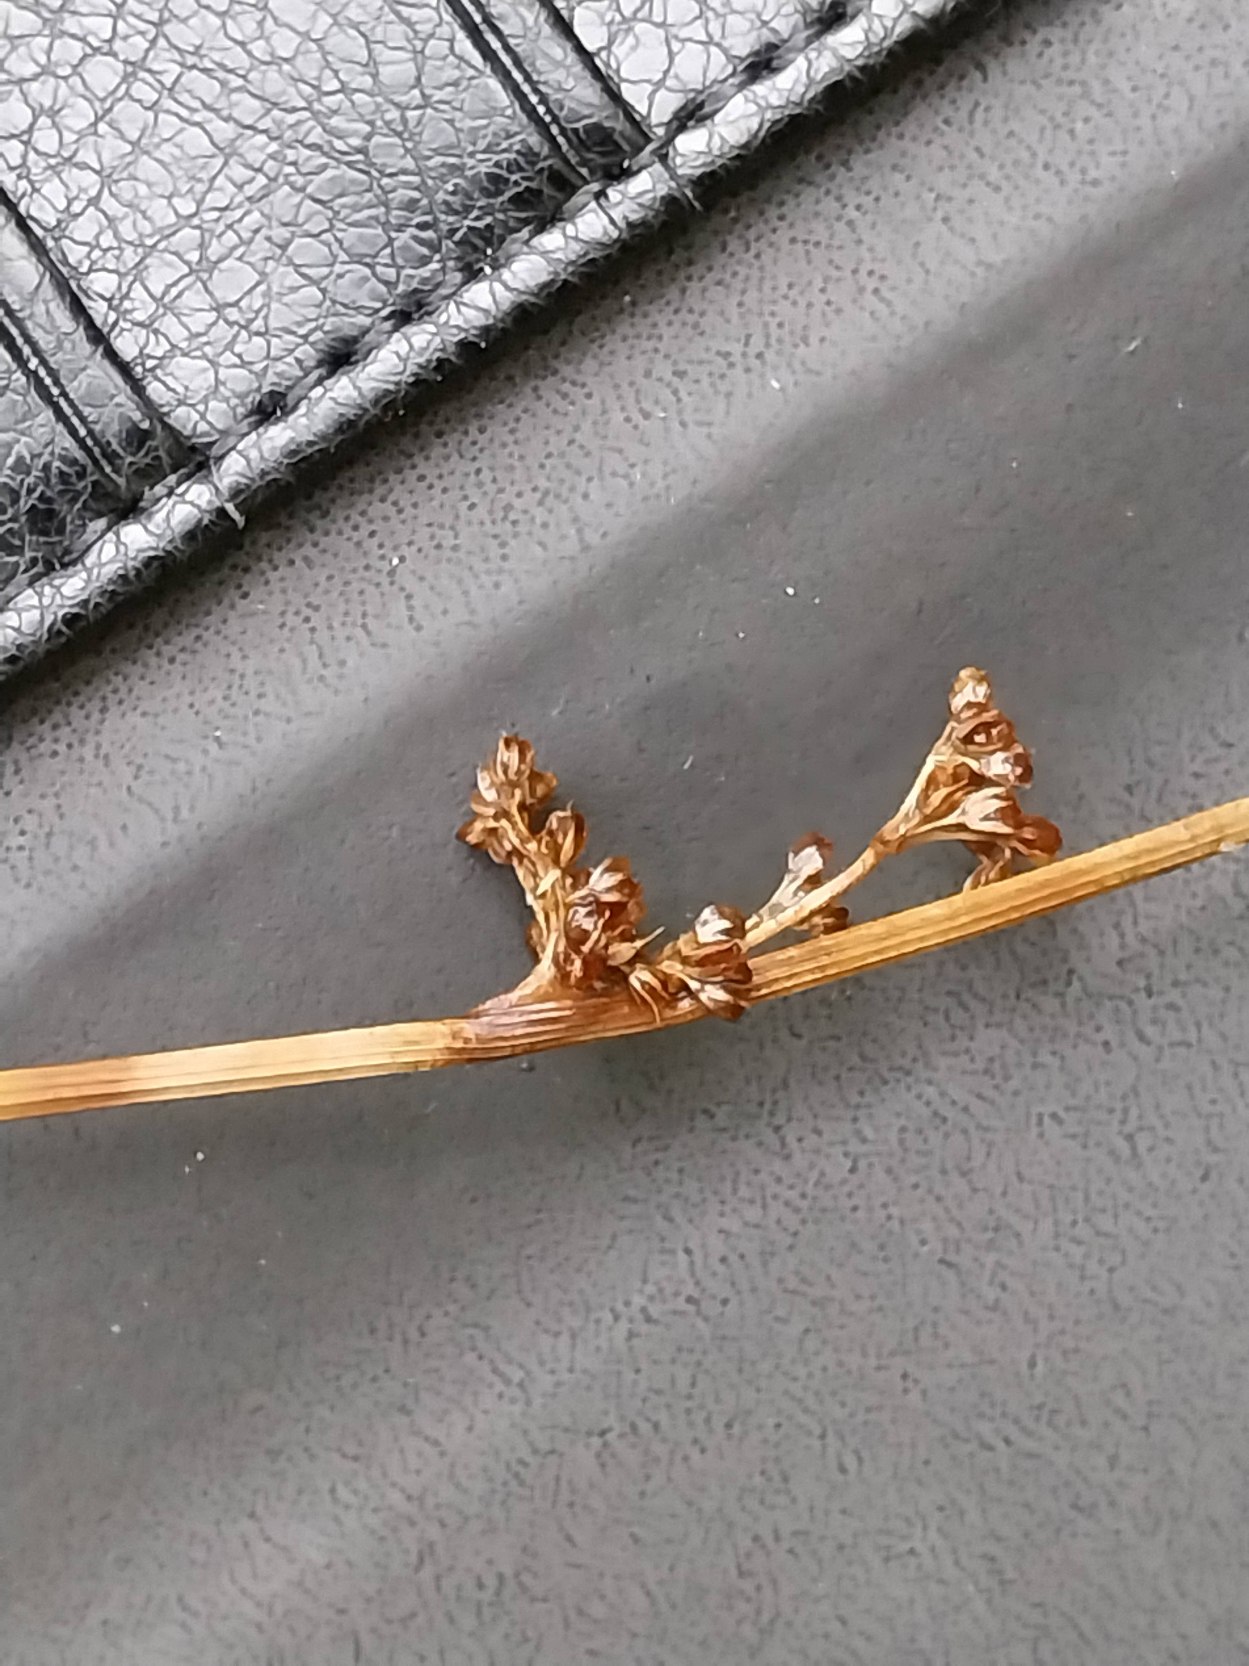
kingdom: Plantae
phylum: Tracheophyta
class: Liliopsida
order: Poales
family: Juncaceae
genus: Juncus
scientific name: Juncus conglomeratus
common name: Knop-siv
